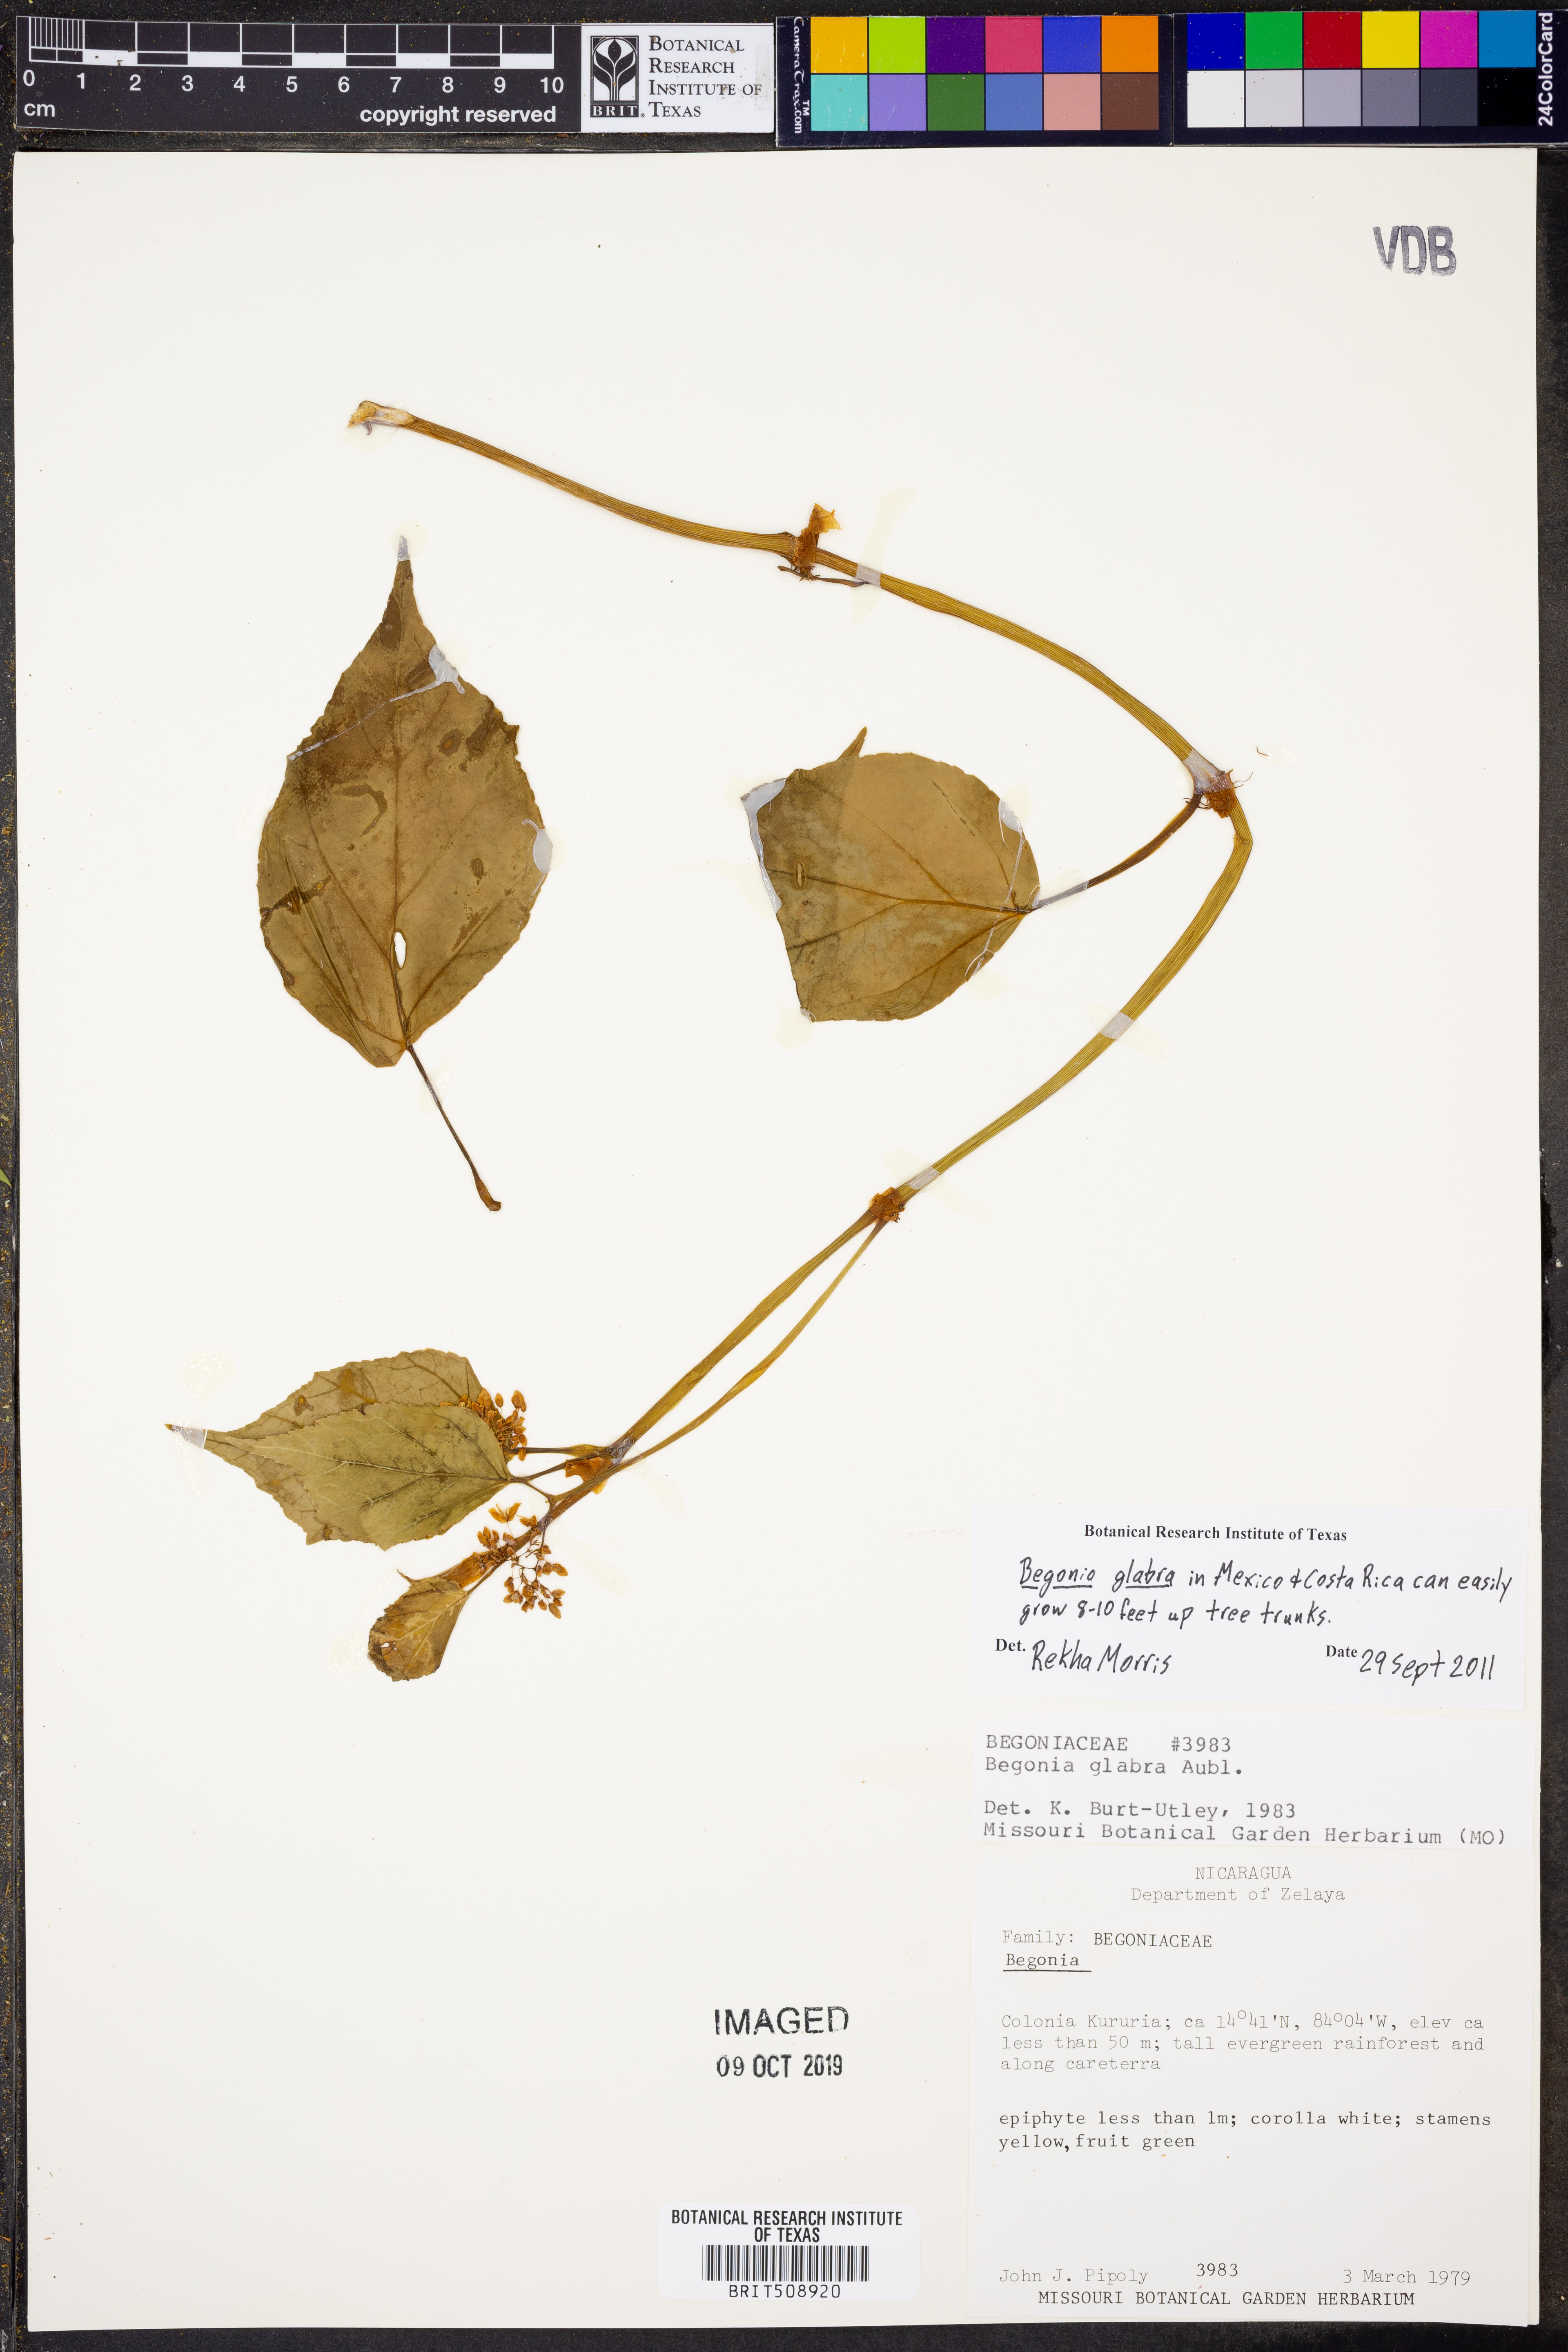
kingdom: Plantae
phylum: Tracheophyta
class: Magnoliopsida
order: Cucurbitales
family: Begoniaceae
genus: Begonia
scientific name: Begonia glabra
